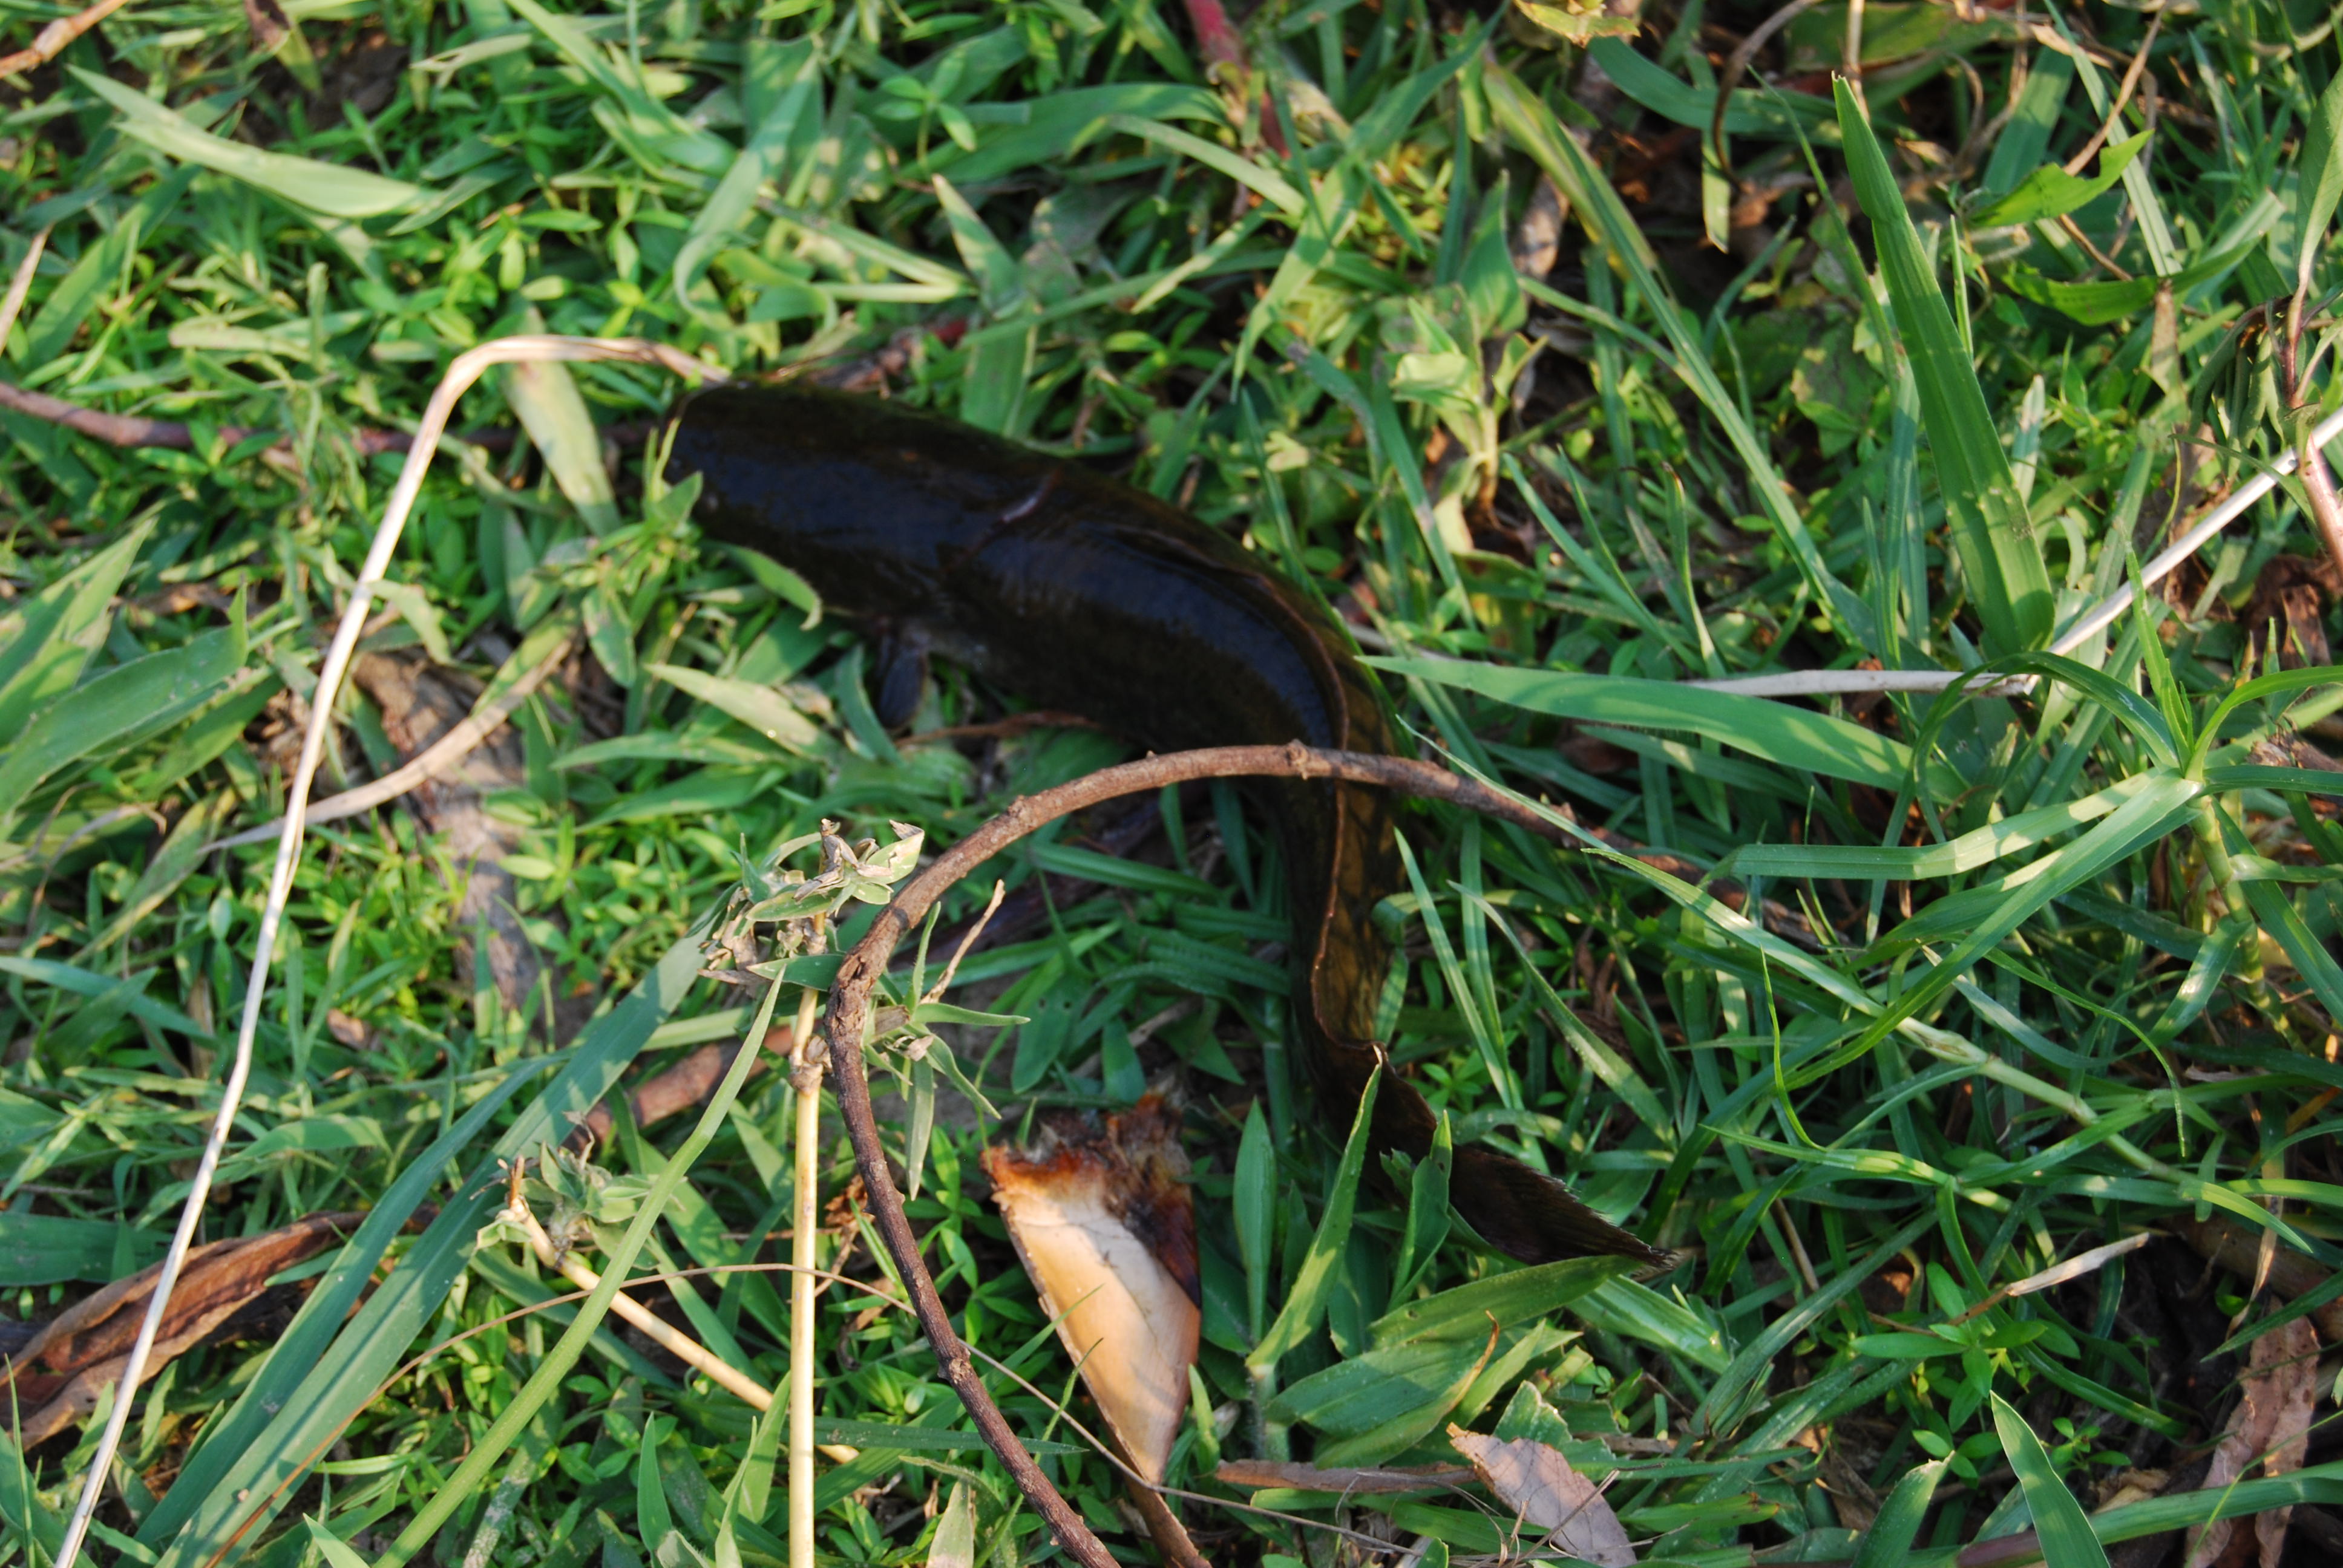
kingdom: Animalia
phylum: Chordata
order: Siluriformes
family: Clariidae
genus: Clarias
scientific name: Clarias gariepinus
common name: African catfish
